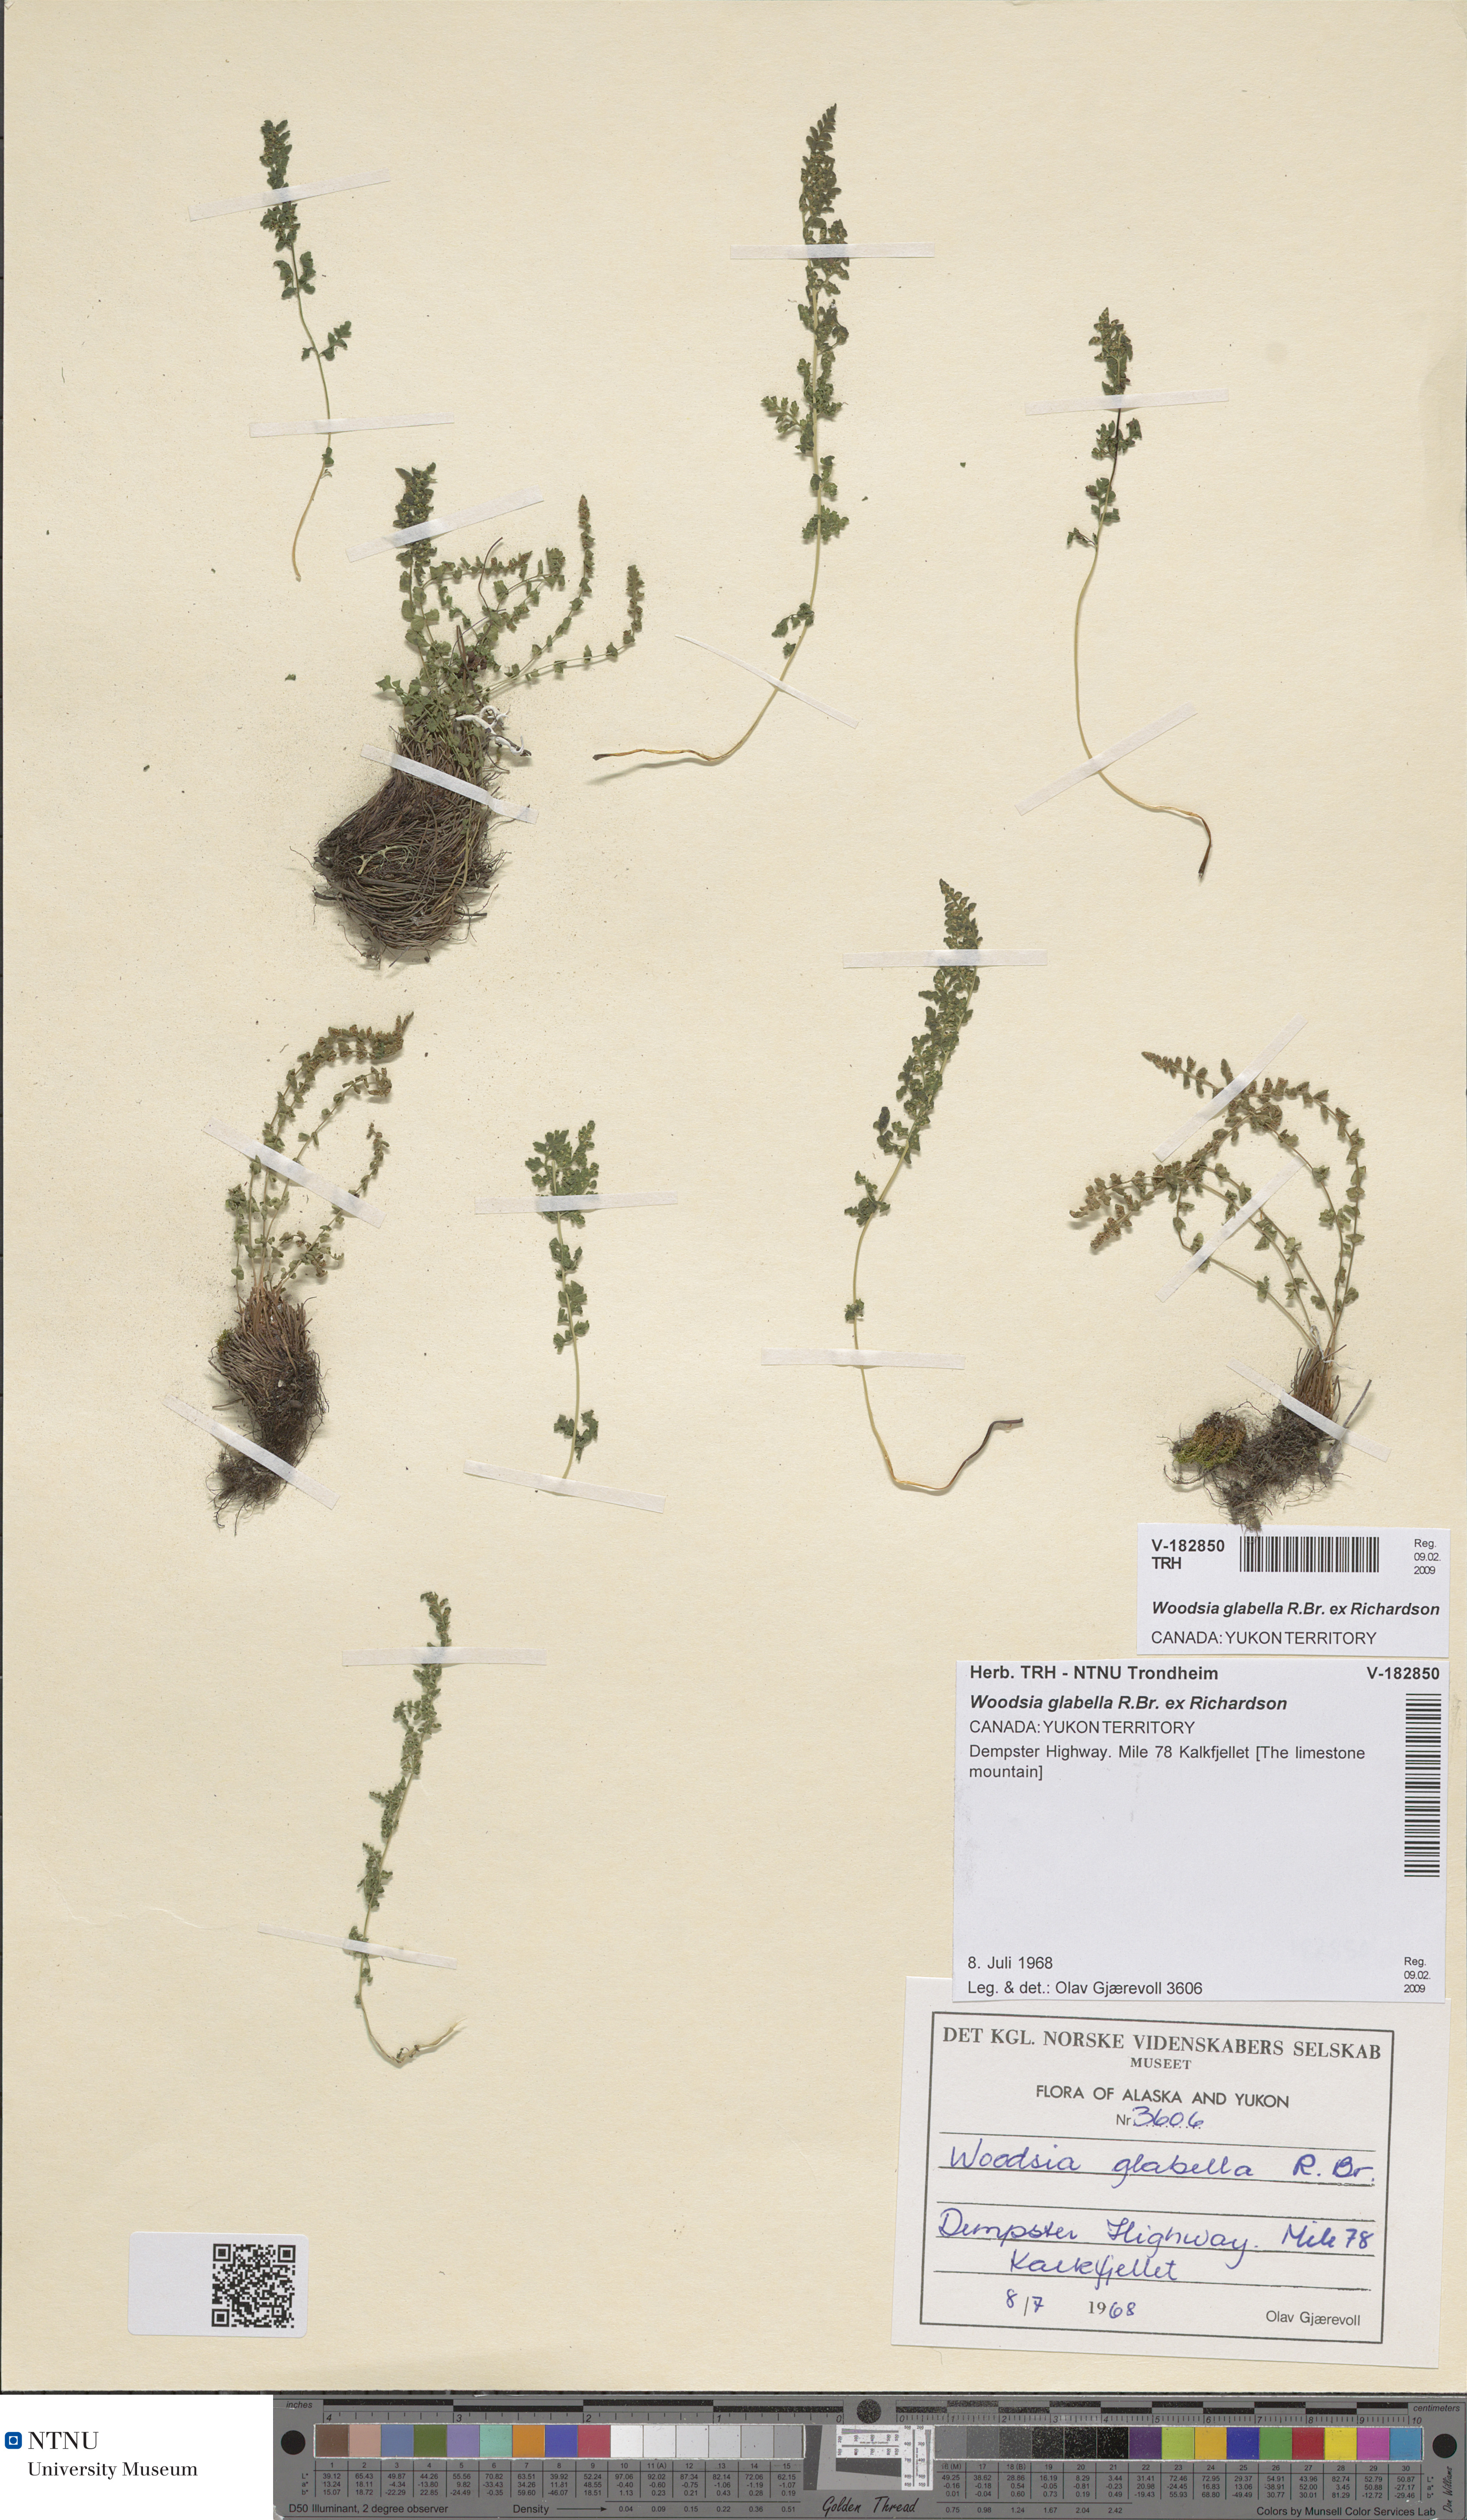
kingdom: Plantae
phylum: Tracheophyta
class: Polypodiopsida
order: Polypodiales
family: Woodsiaceae
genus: Woodsia
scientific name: Woodsia glabella
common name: Smooth woodsia
